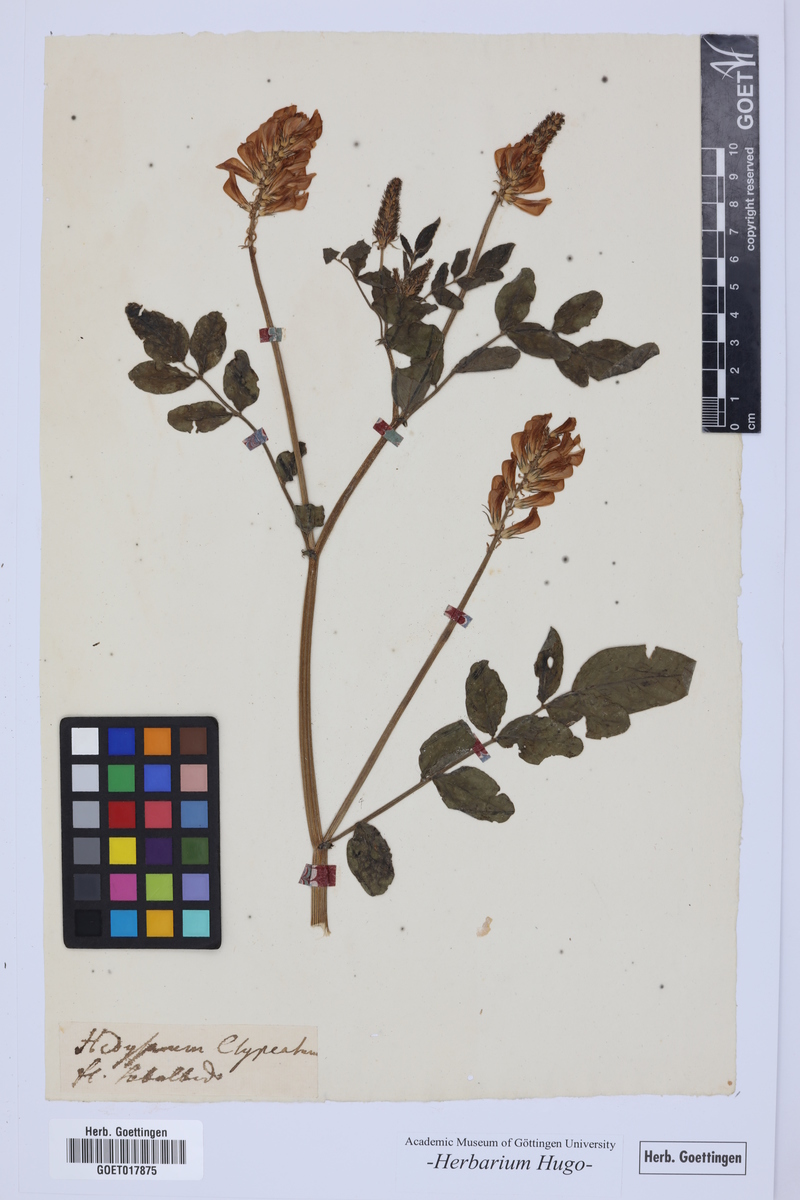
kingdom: Plantae
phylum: Tracheophyta
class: Magnoliopsida
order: Fabales
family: Fabaceae
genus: Hedysarum
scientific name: Hedysarum
